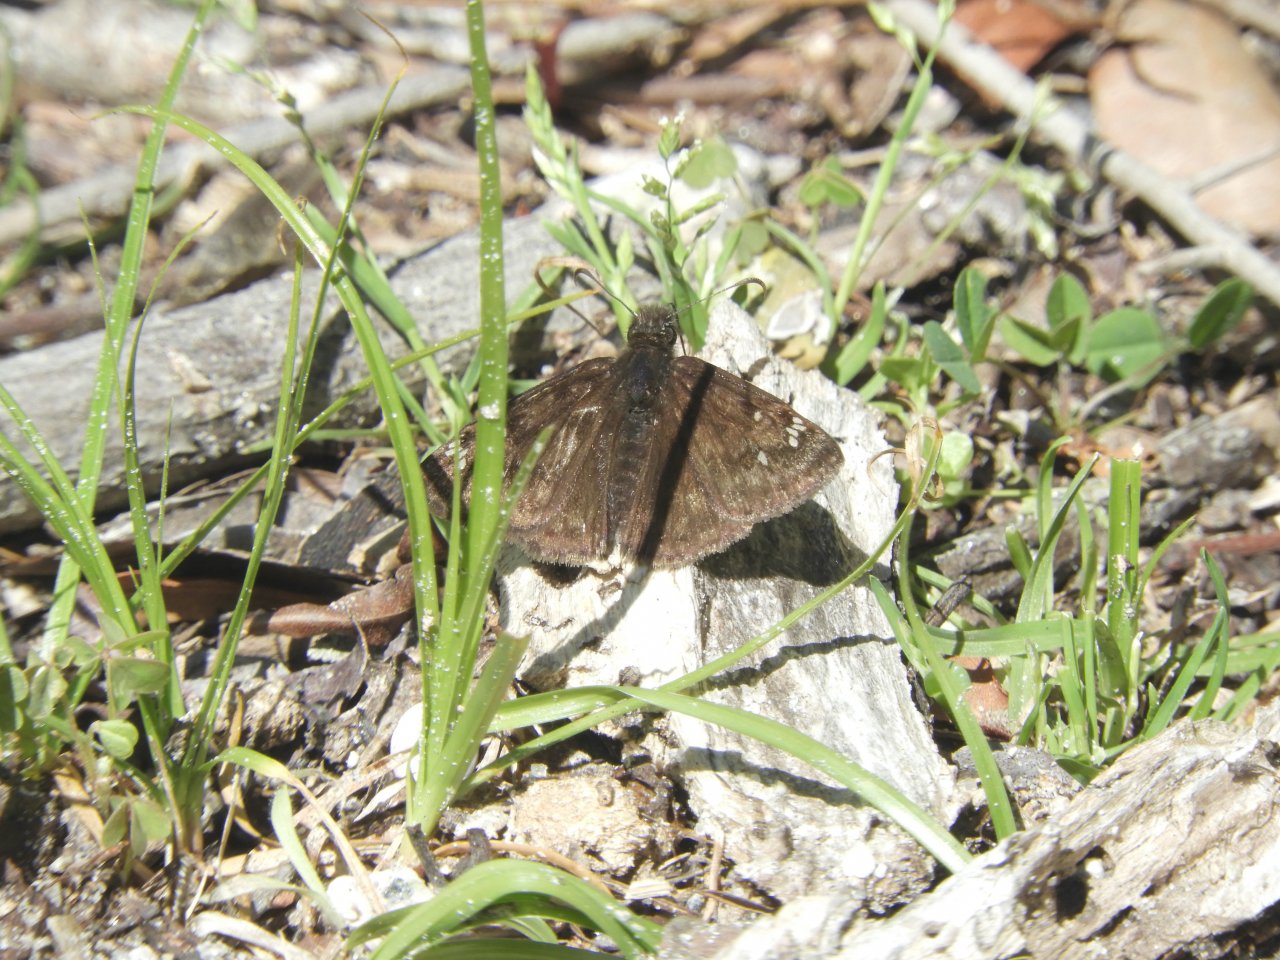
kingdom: Animalia
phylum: Arthropoda
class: Insecta
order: Lepidoptera
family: Hesperiidae
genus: Gesta
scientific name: Gesta
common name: Juvenal's Duskywing
